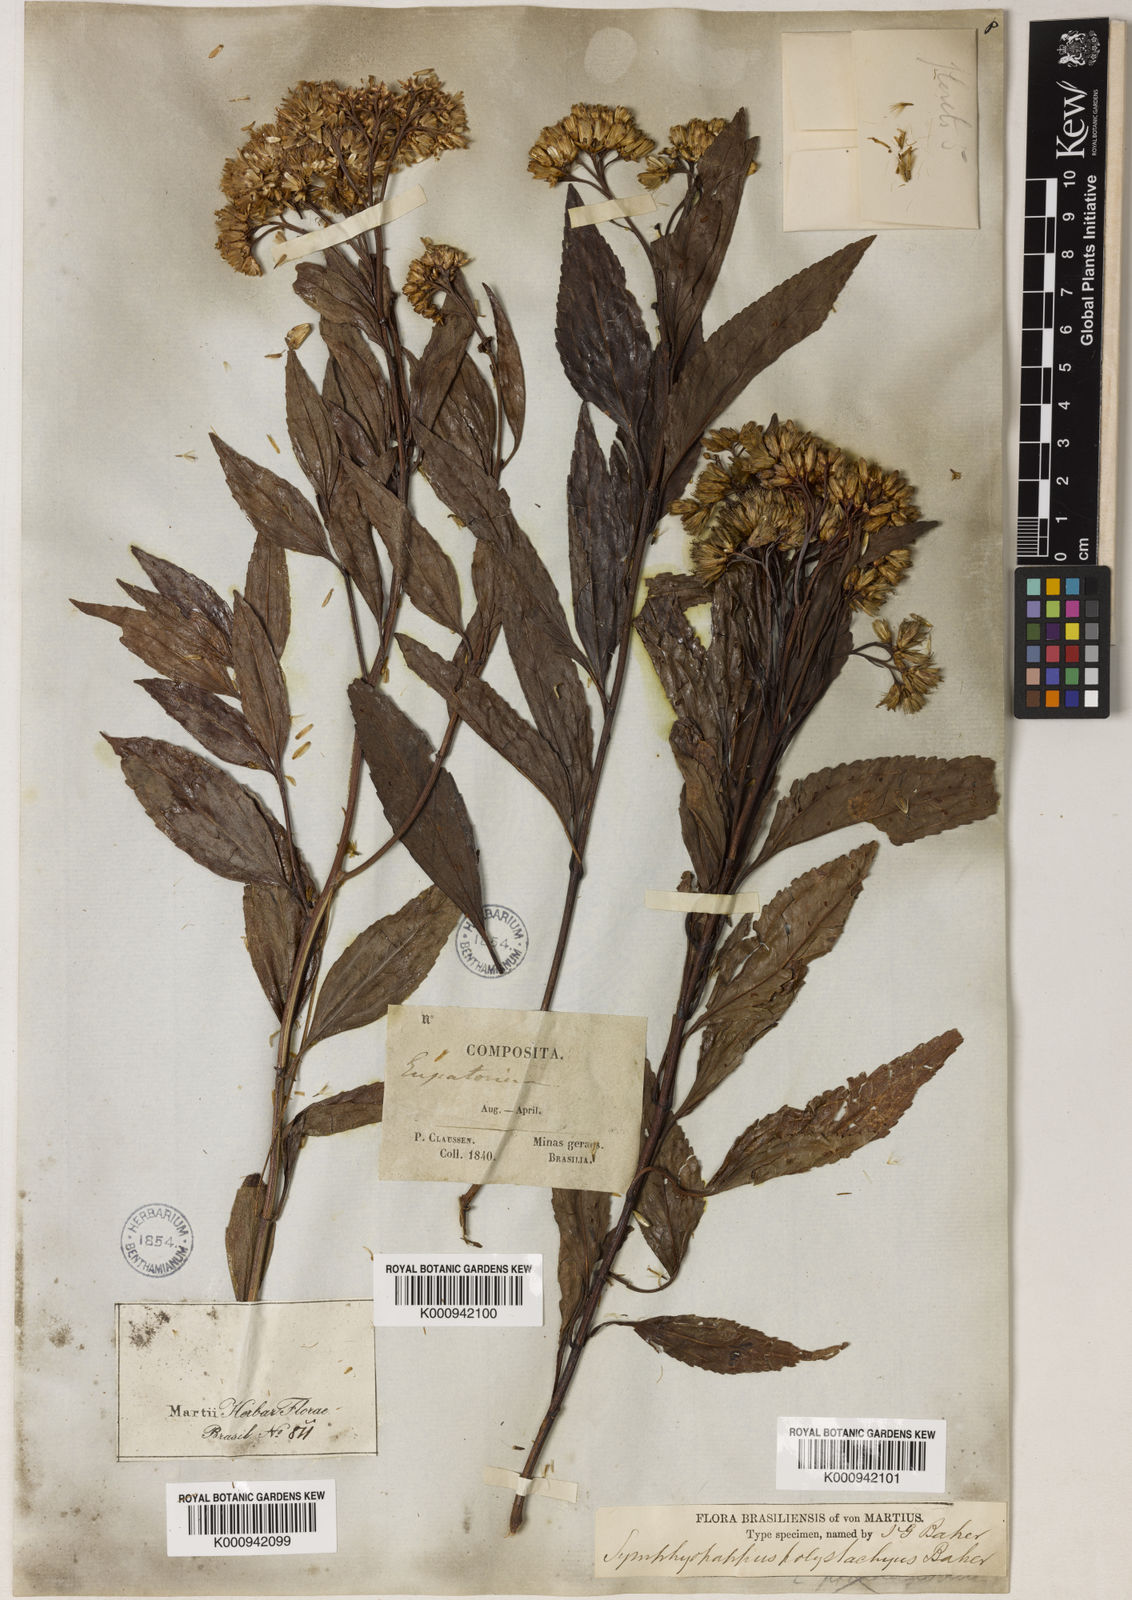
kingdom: Plantae
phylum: Tracheophyta
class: Magnoliopsida
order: Asterales
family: Asteraceae
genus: Symphyopappus
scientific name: Symphyopappus compressus
